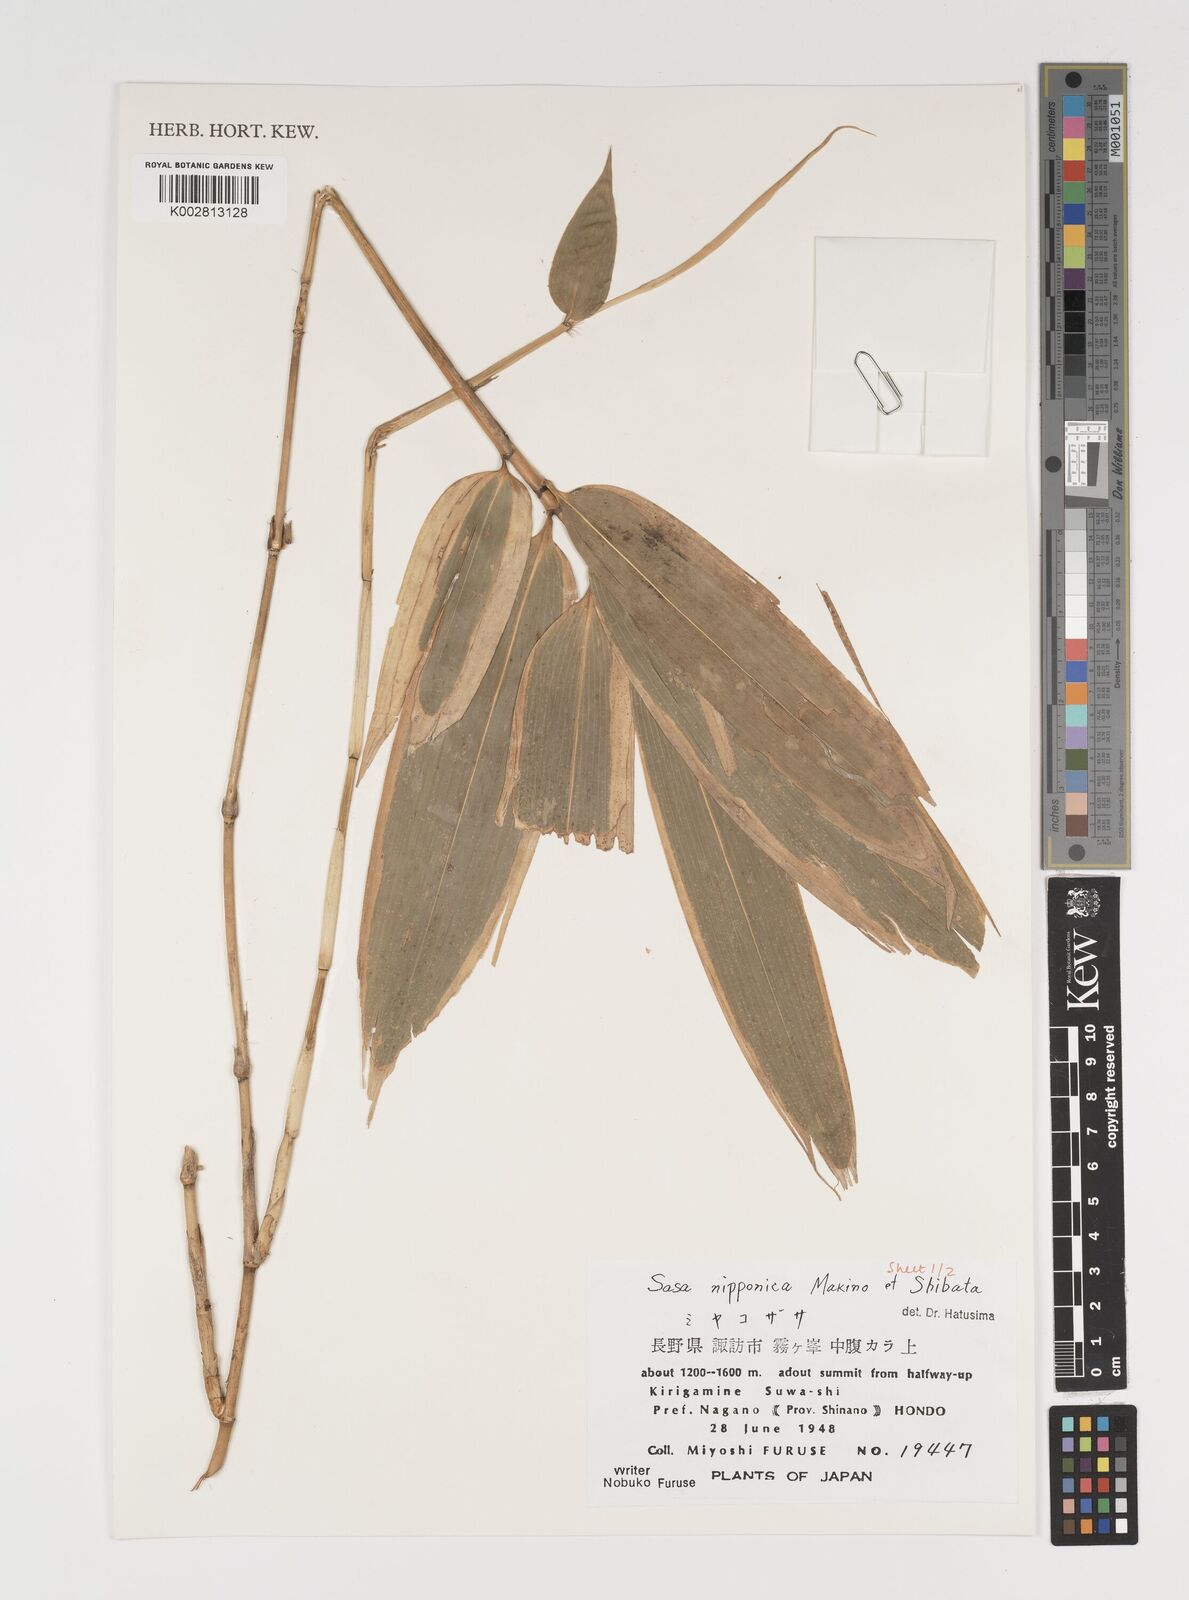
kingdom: Plantae
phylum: Tracheophyta
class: Liliopsida
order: Poales
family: Poaceae
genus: Sasa
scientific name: Sasa nipponica
